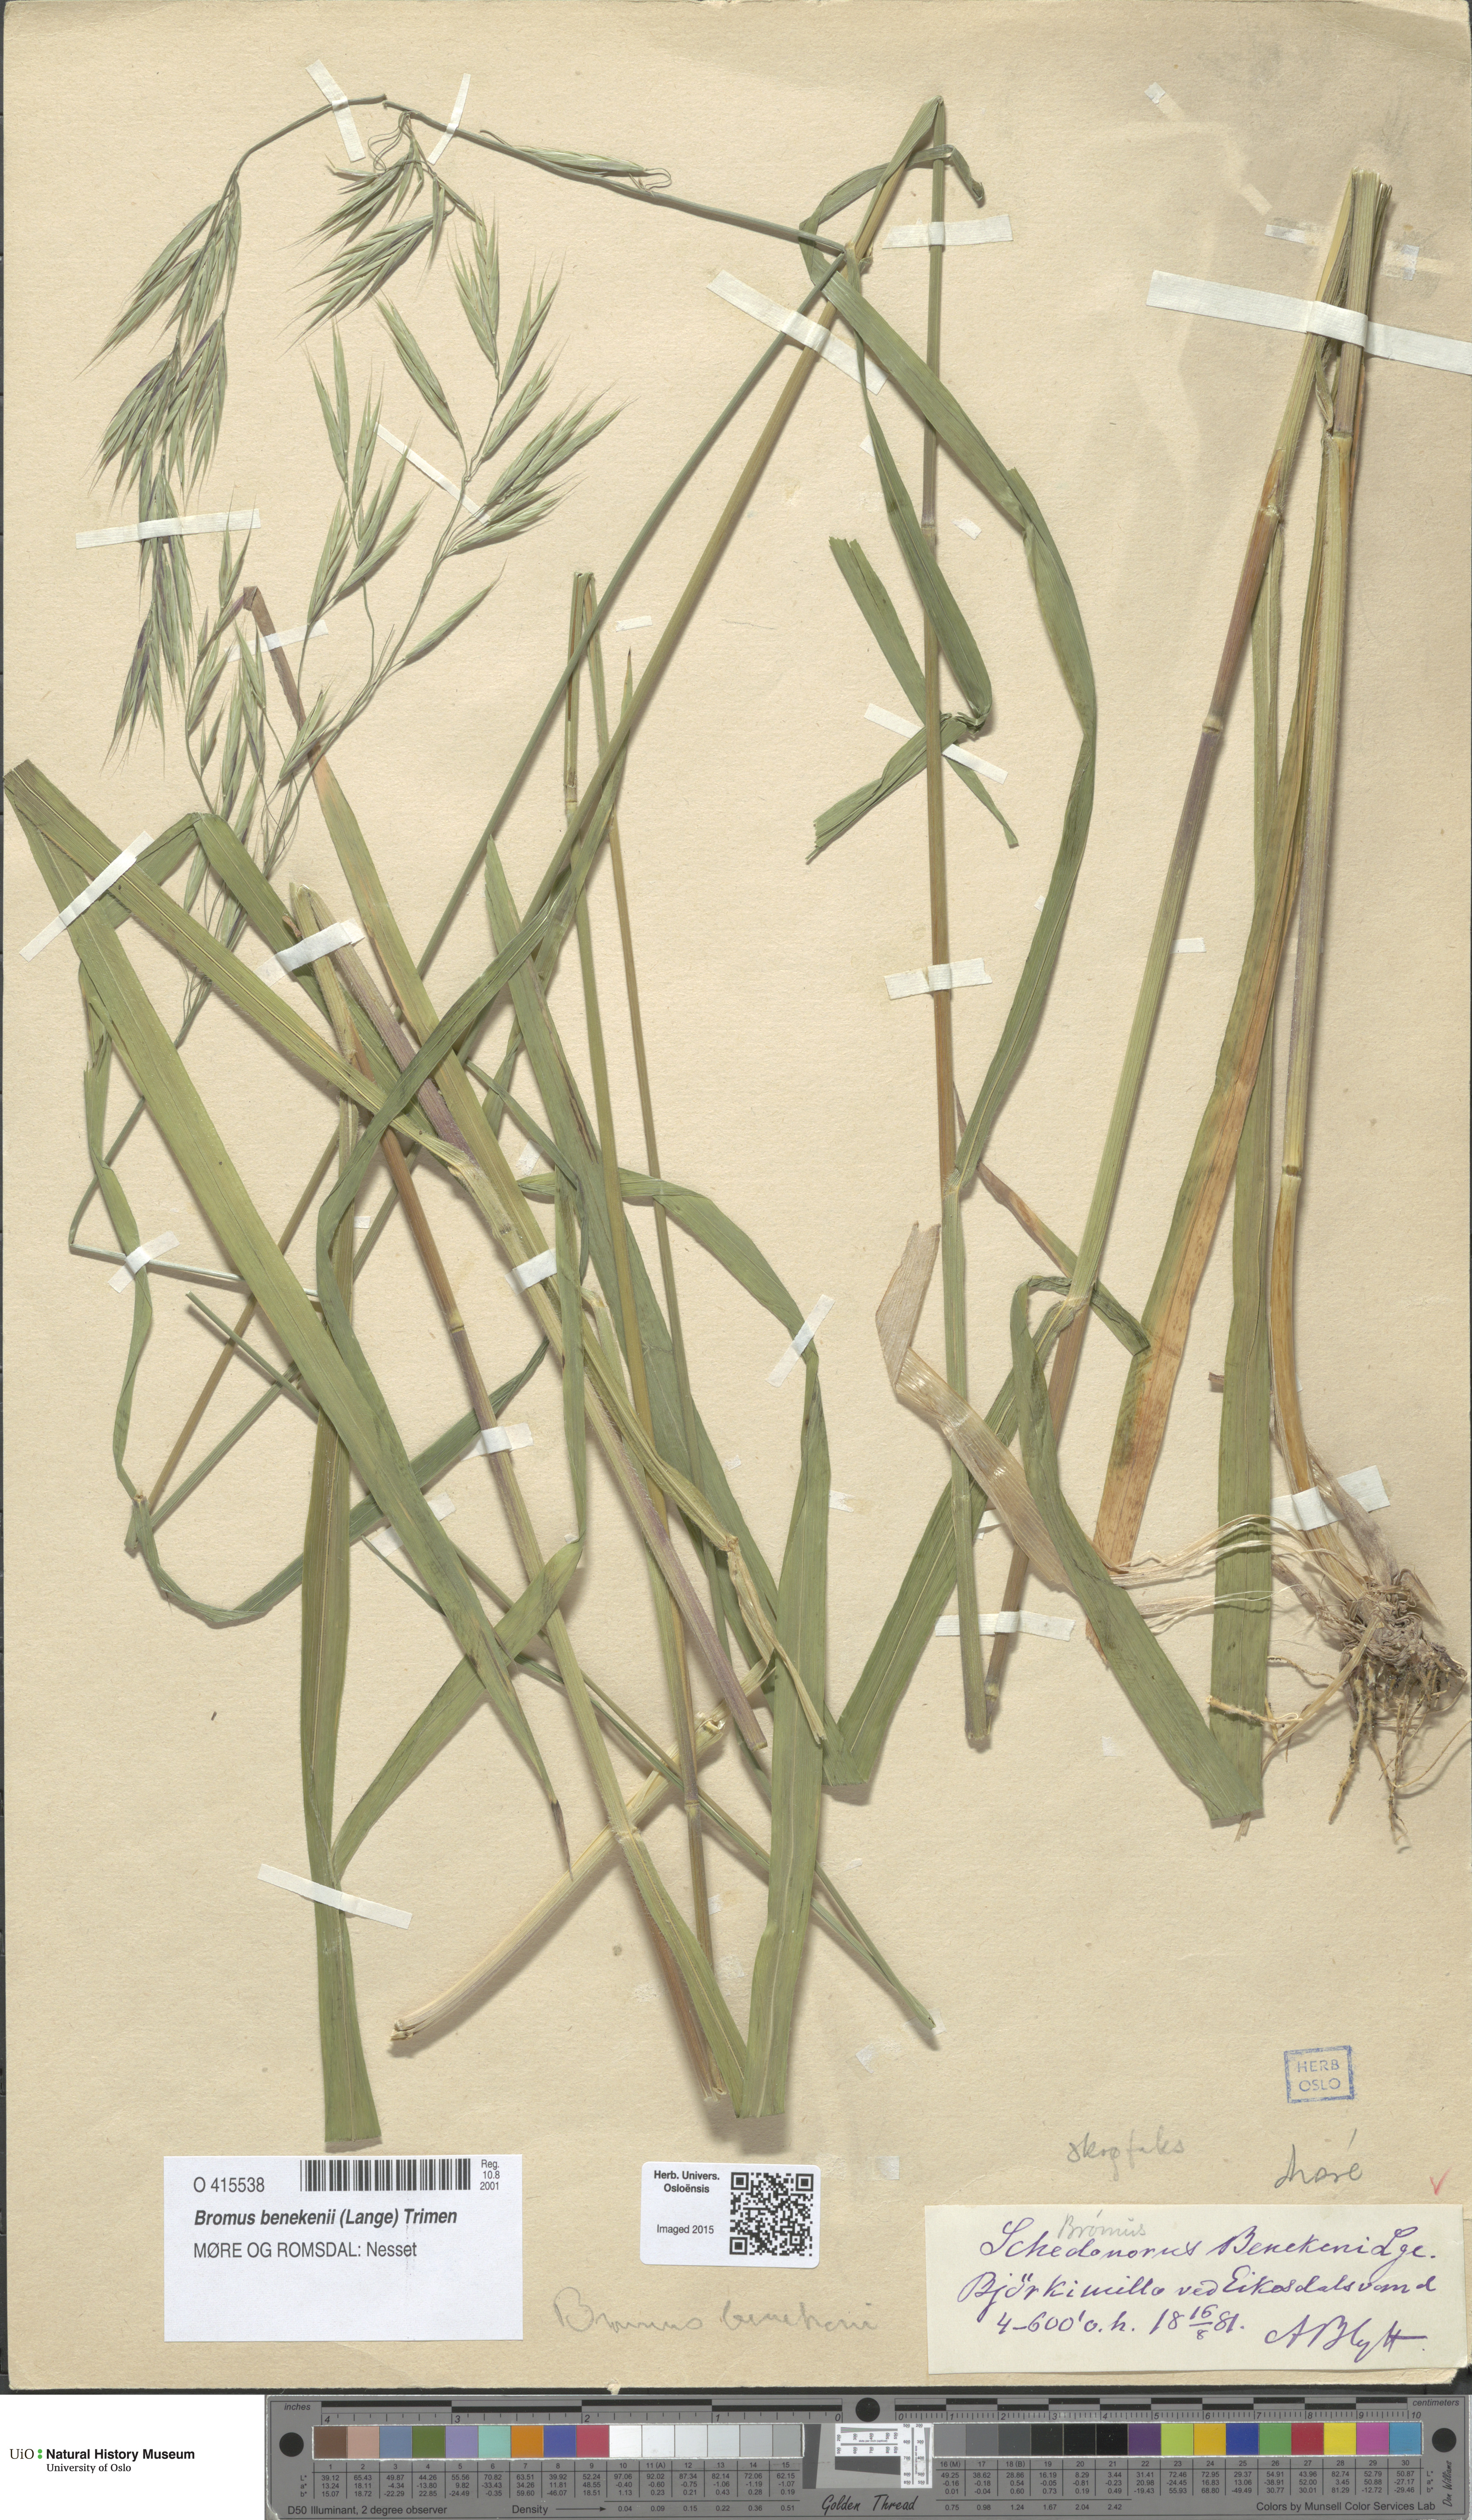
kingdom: Plantae
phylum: Tracheophyta
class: Liliopsida
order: Poales
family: Poaceae
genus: Bromus
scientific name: Bromus benekenii
